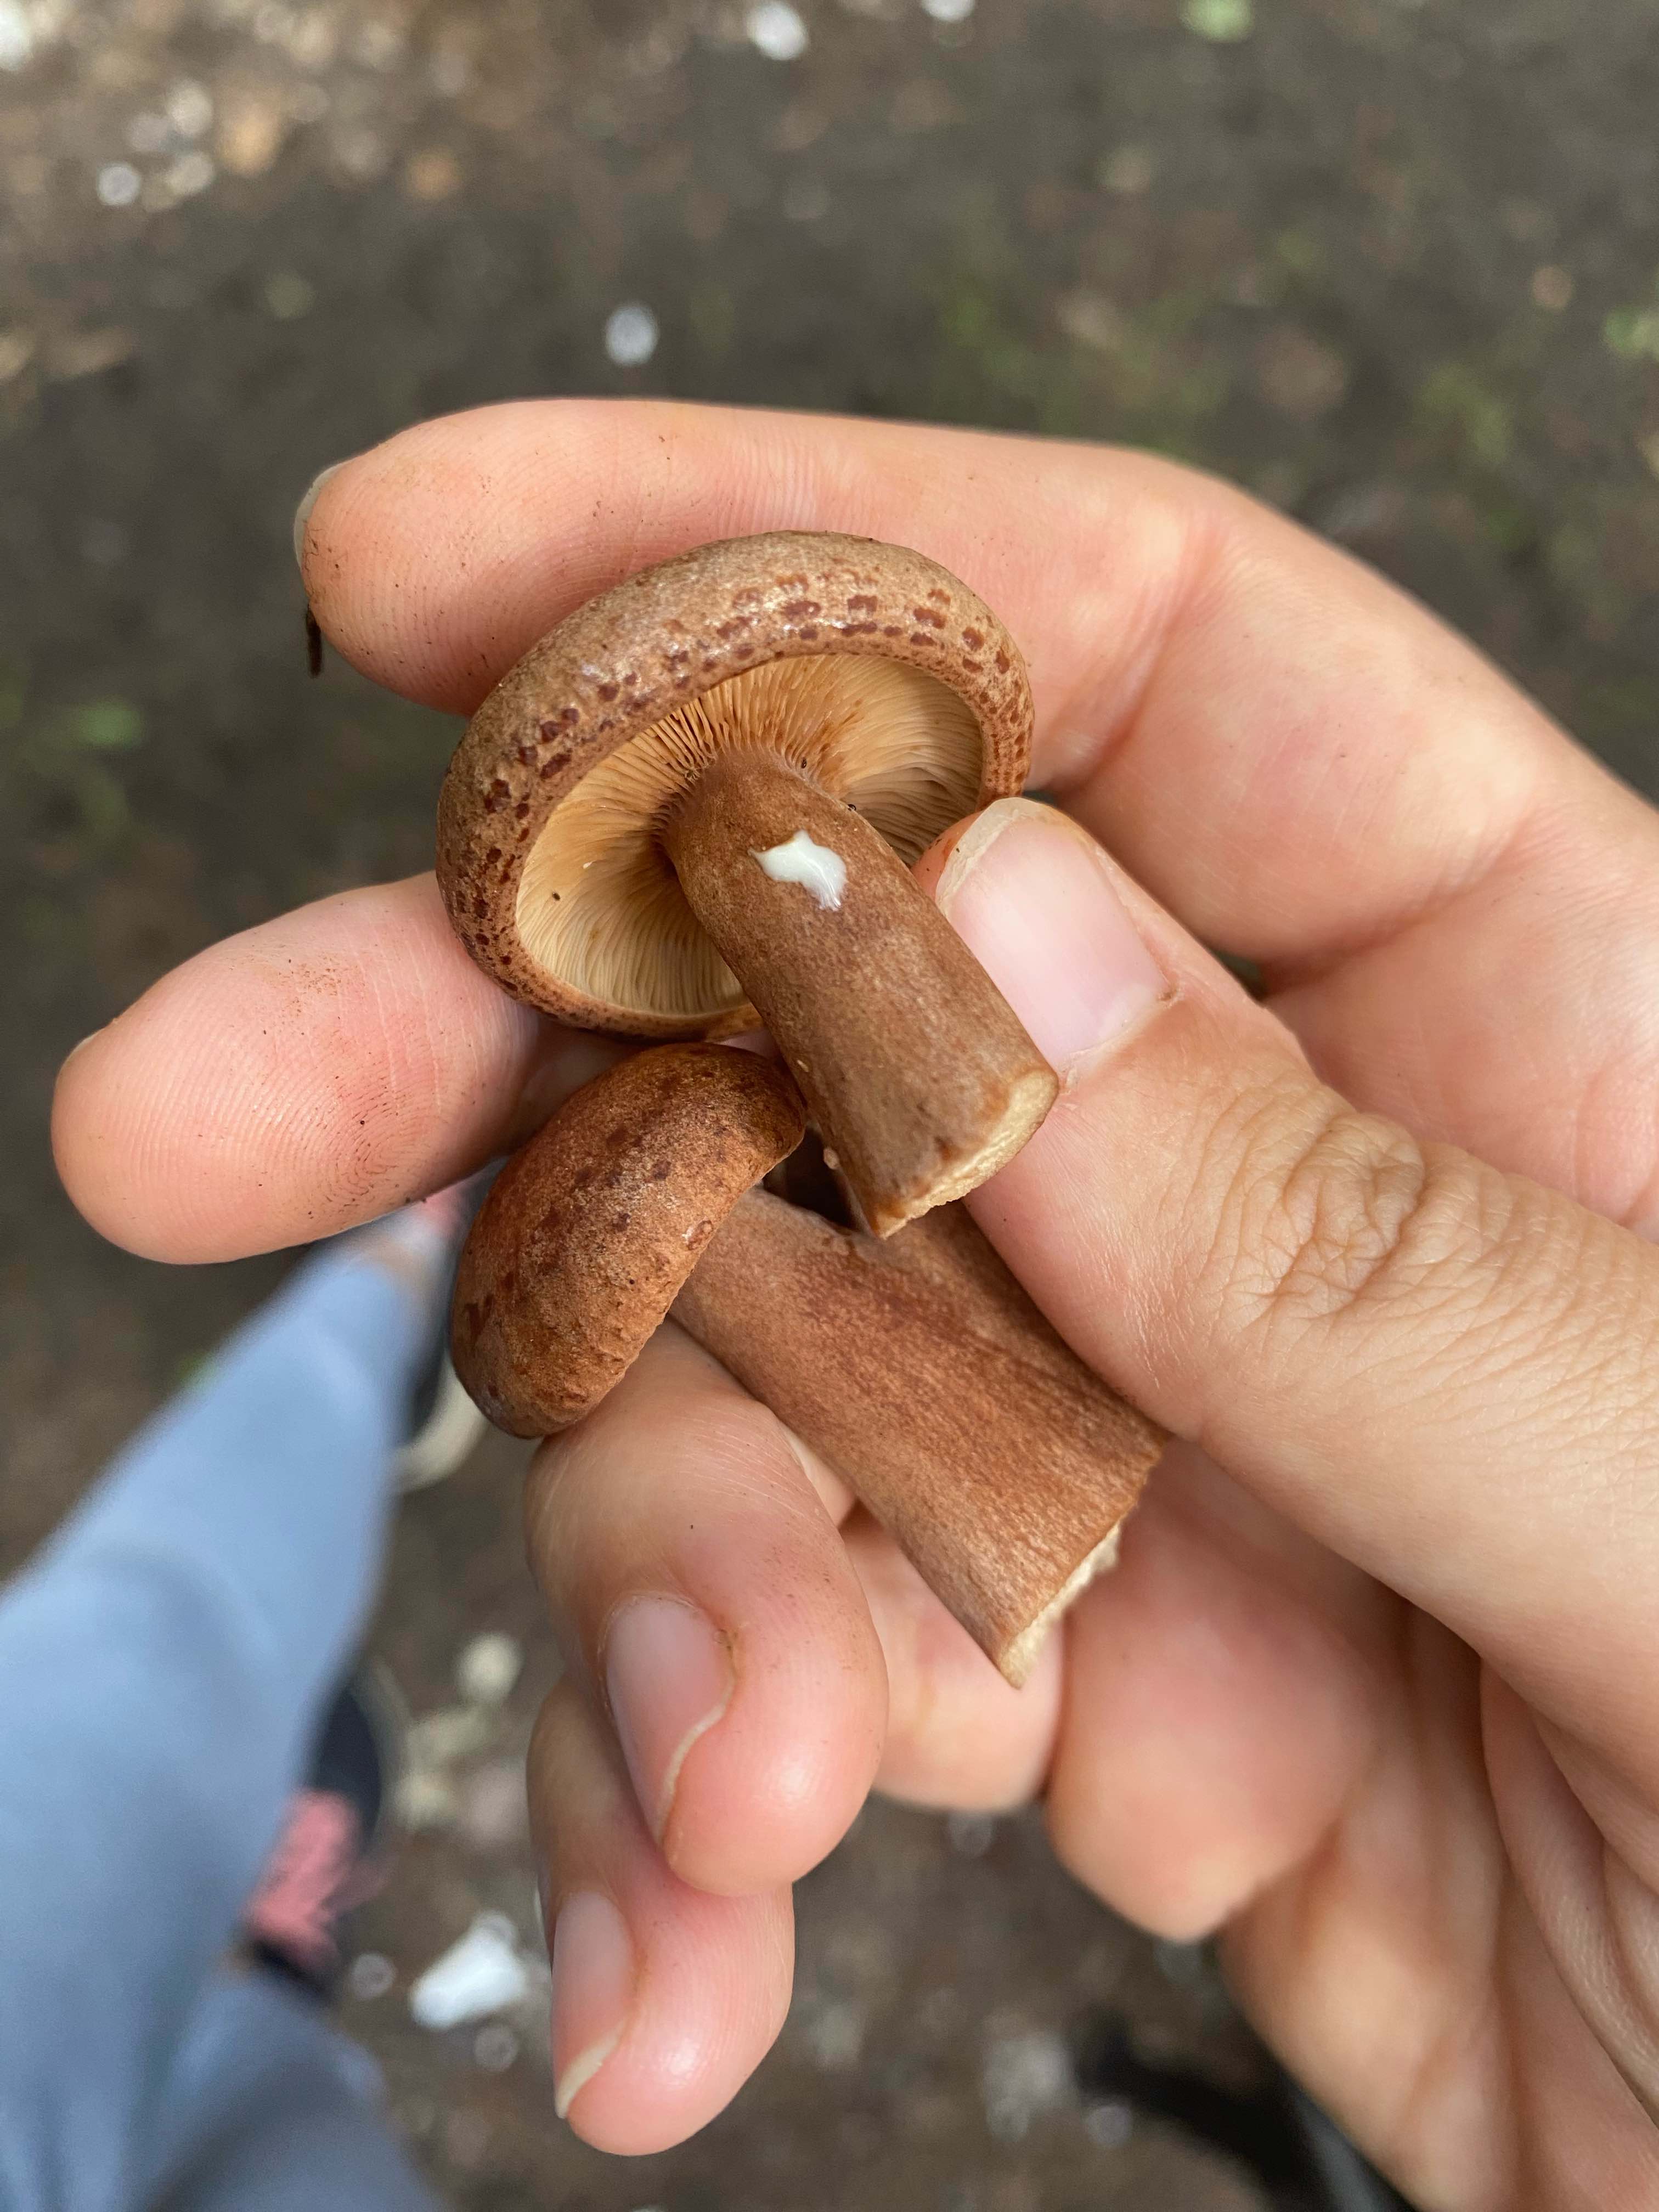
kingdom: Fungi
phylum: Basidiomycota
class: Agaricomycetes
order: Russulales
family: Russulaceae
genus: Lactarius
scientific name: Lactarius quietus
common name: ege-mælkehat
